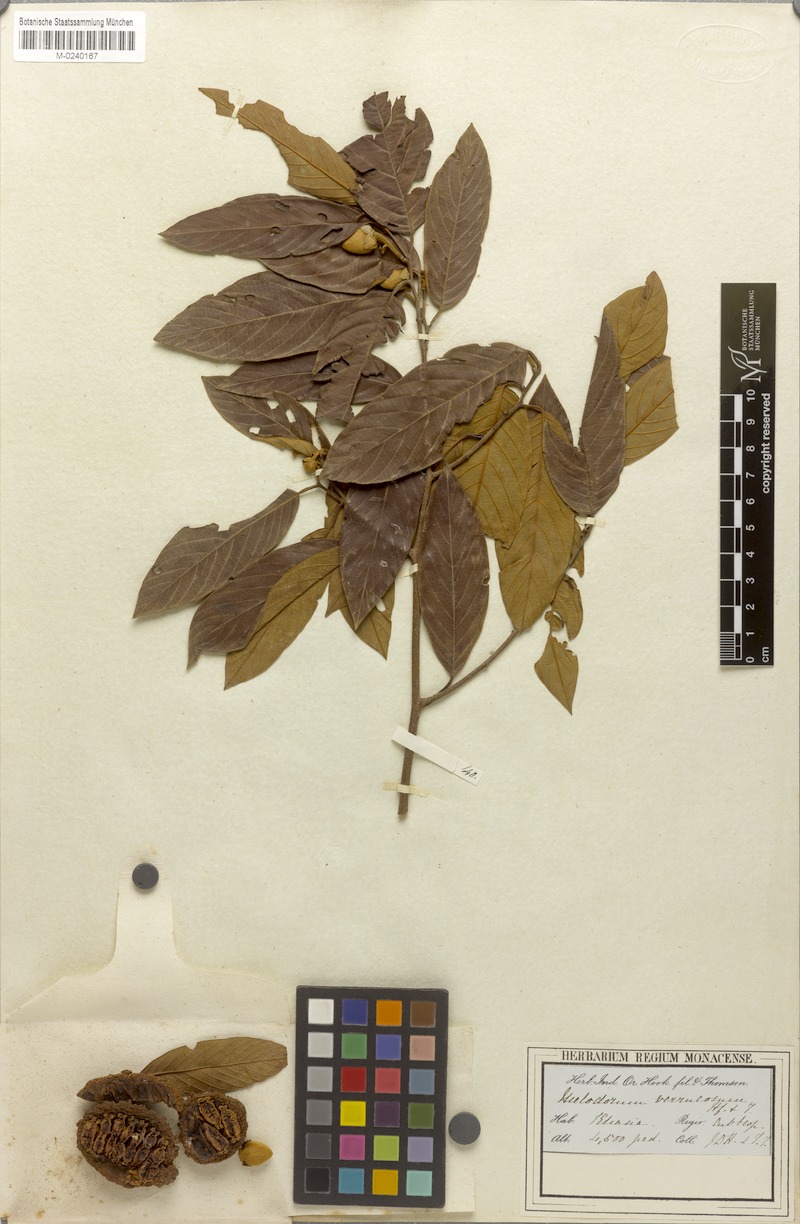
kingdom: Plantae
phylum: Tracheophyta
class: Magnoliopsida
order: Magnoliales
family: Annonaceae
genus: Fissistigma
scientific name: Fissistigma verrucosum
